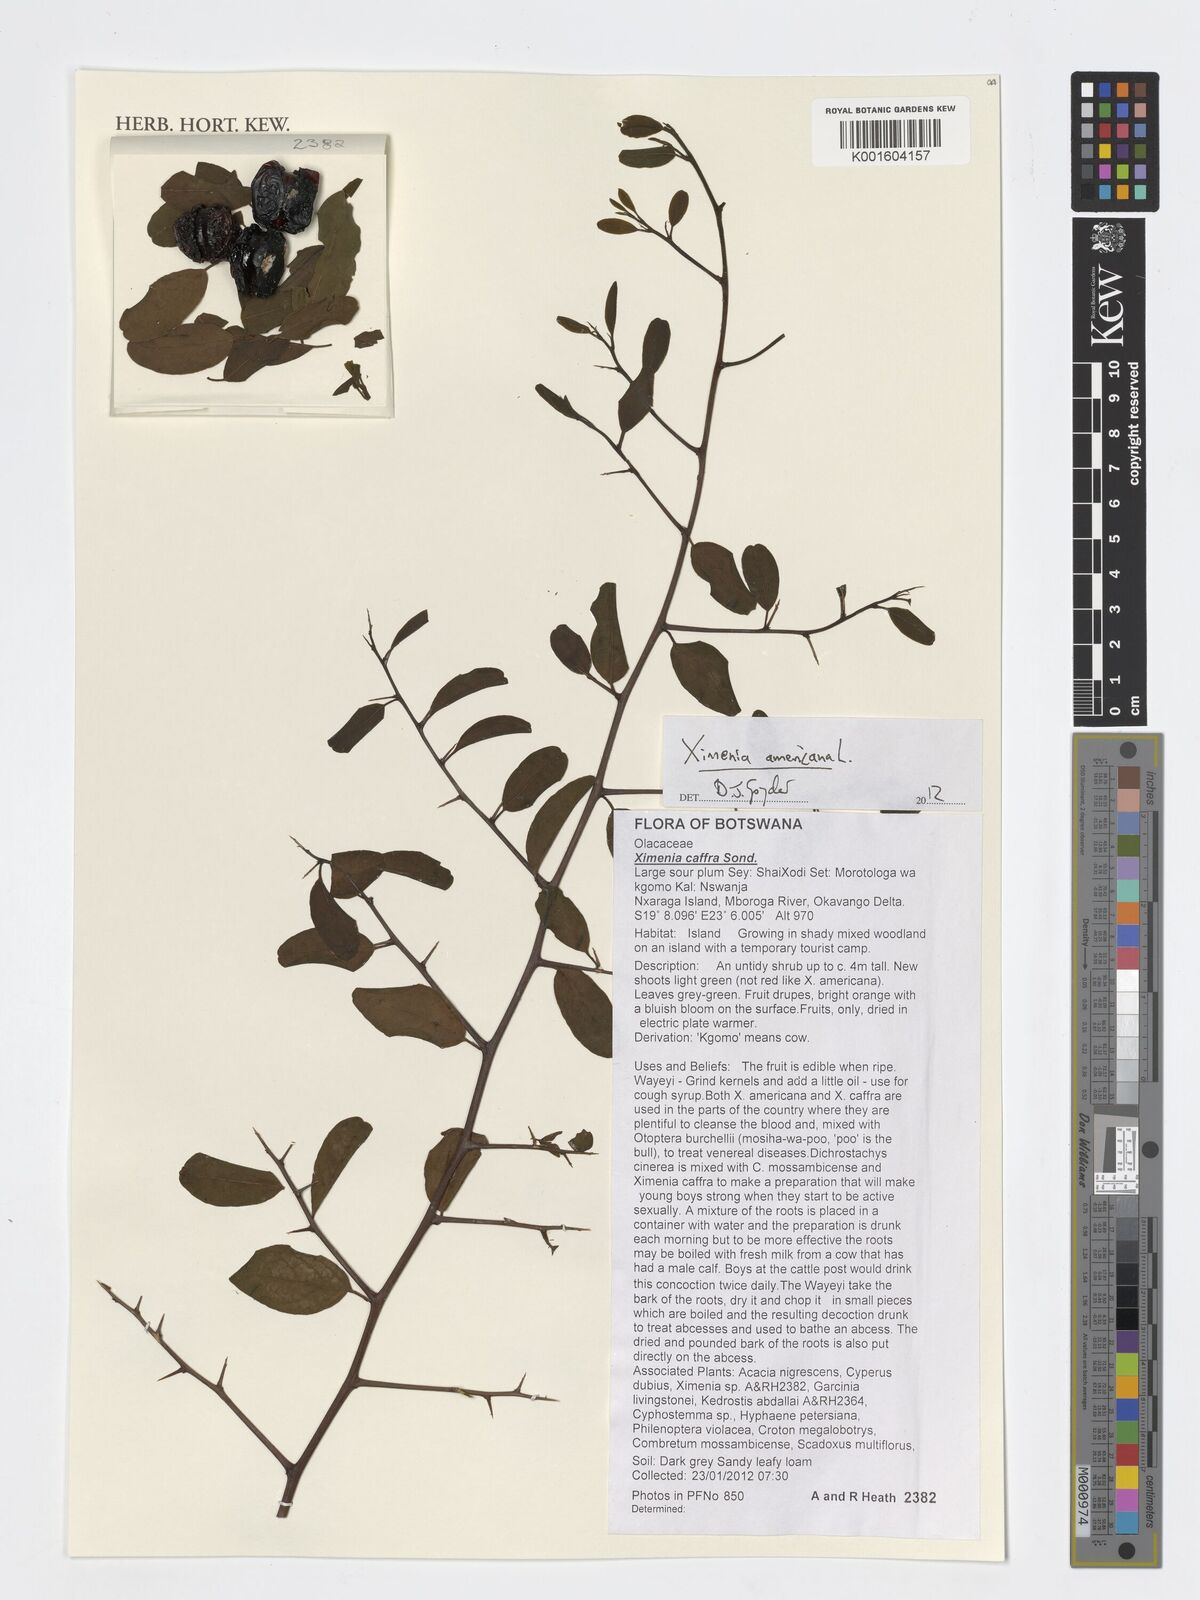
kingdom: Plantae
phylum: Tracheophyta
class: Magnoliopsida
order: Santalales
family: Ximeniaceae
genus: Ximenia
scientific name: Ximenia americana
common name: Tallowwood
